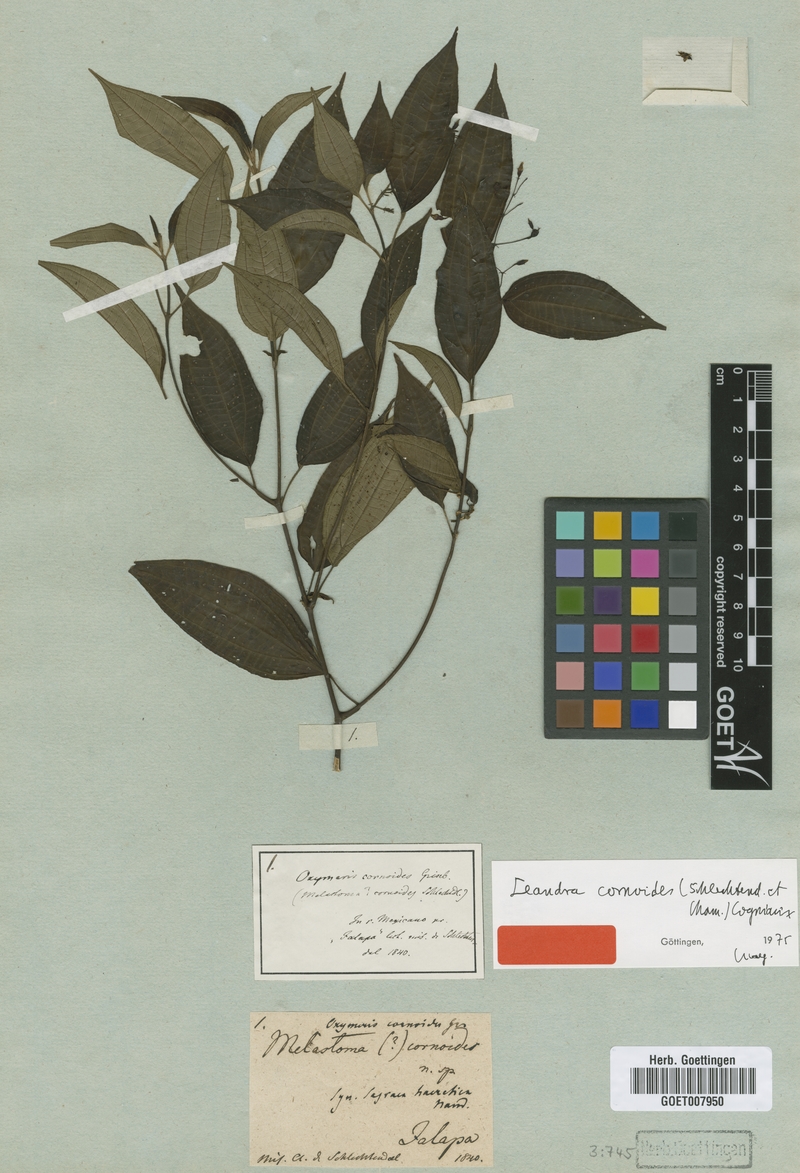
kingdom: Plantae
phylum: Tracheophyta
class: Magnoliopsida
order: Myrtales
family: Melastomataceae
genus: Miconia
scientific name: Miconia cornoides
